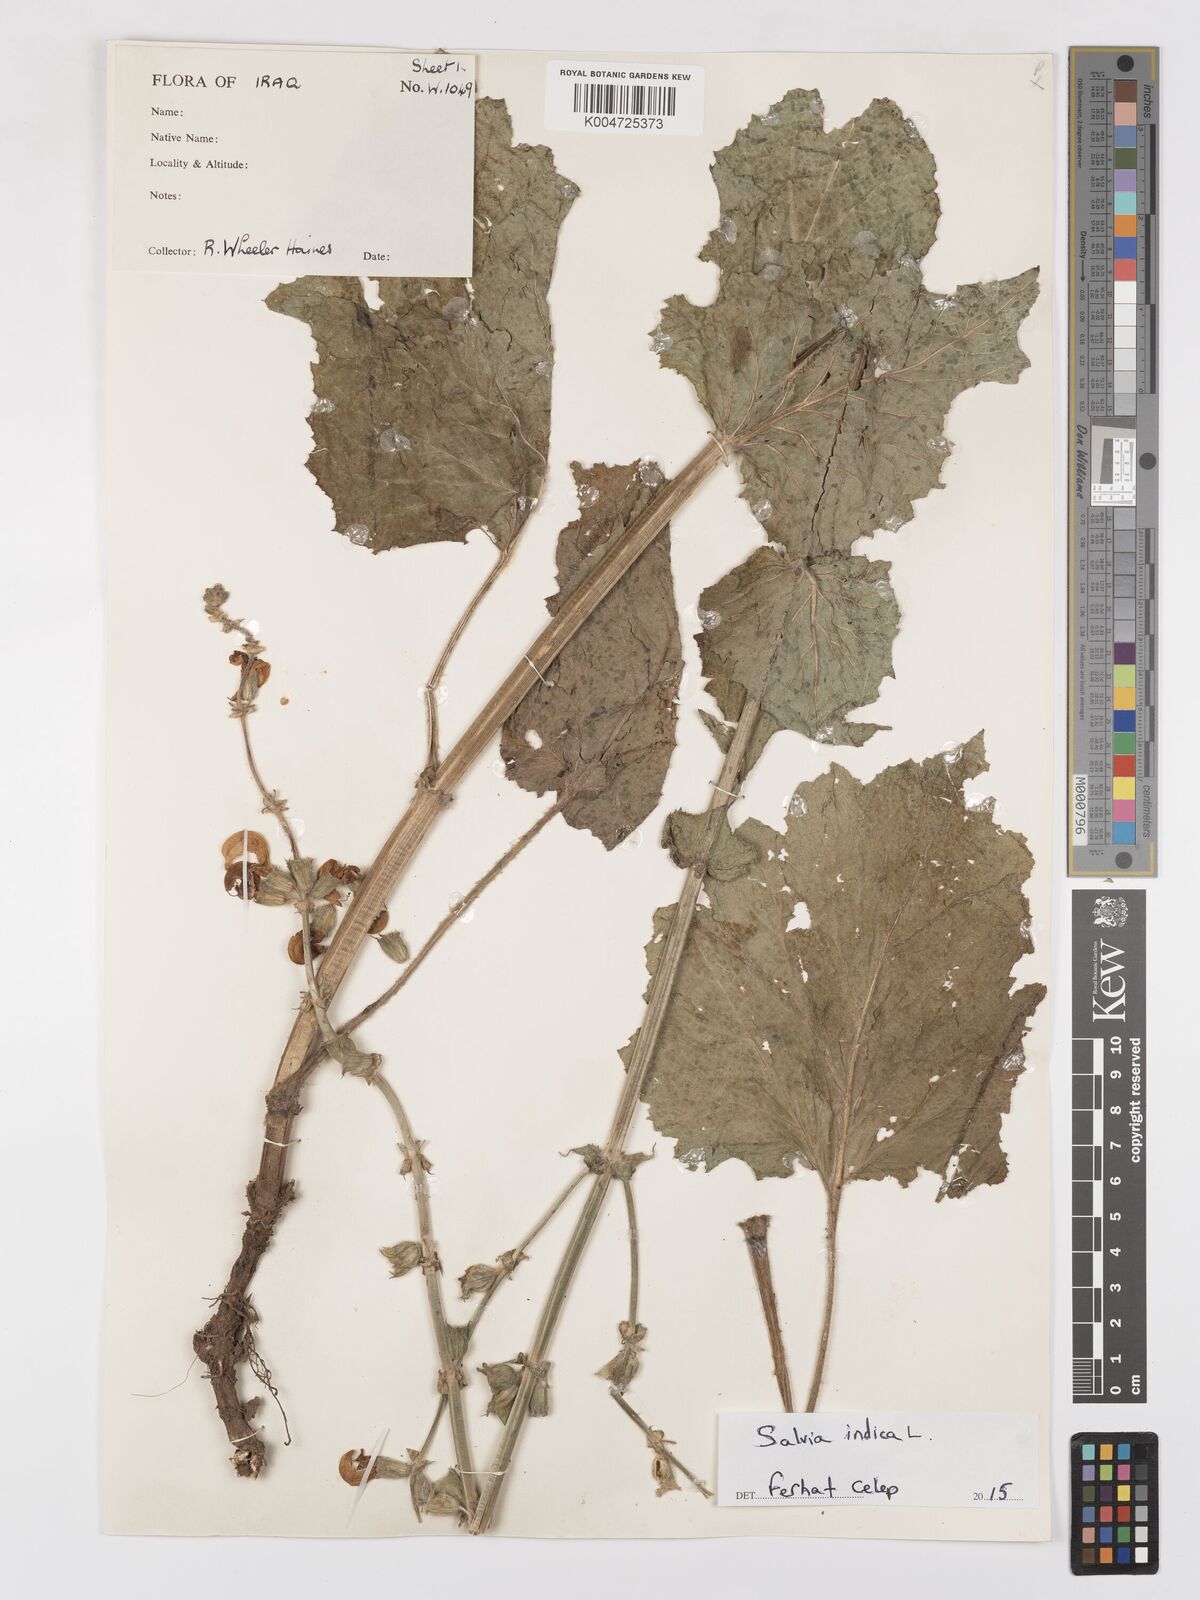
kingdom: Plantae
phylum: Tracheophyta
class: Magnoliopsida
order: Lamiales
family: Lamiaceae
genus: Salvia
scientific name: Salvia indica
